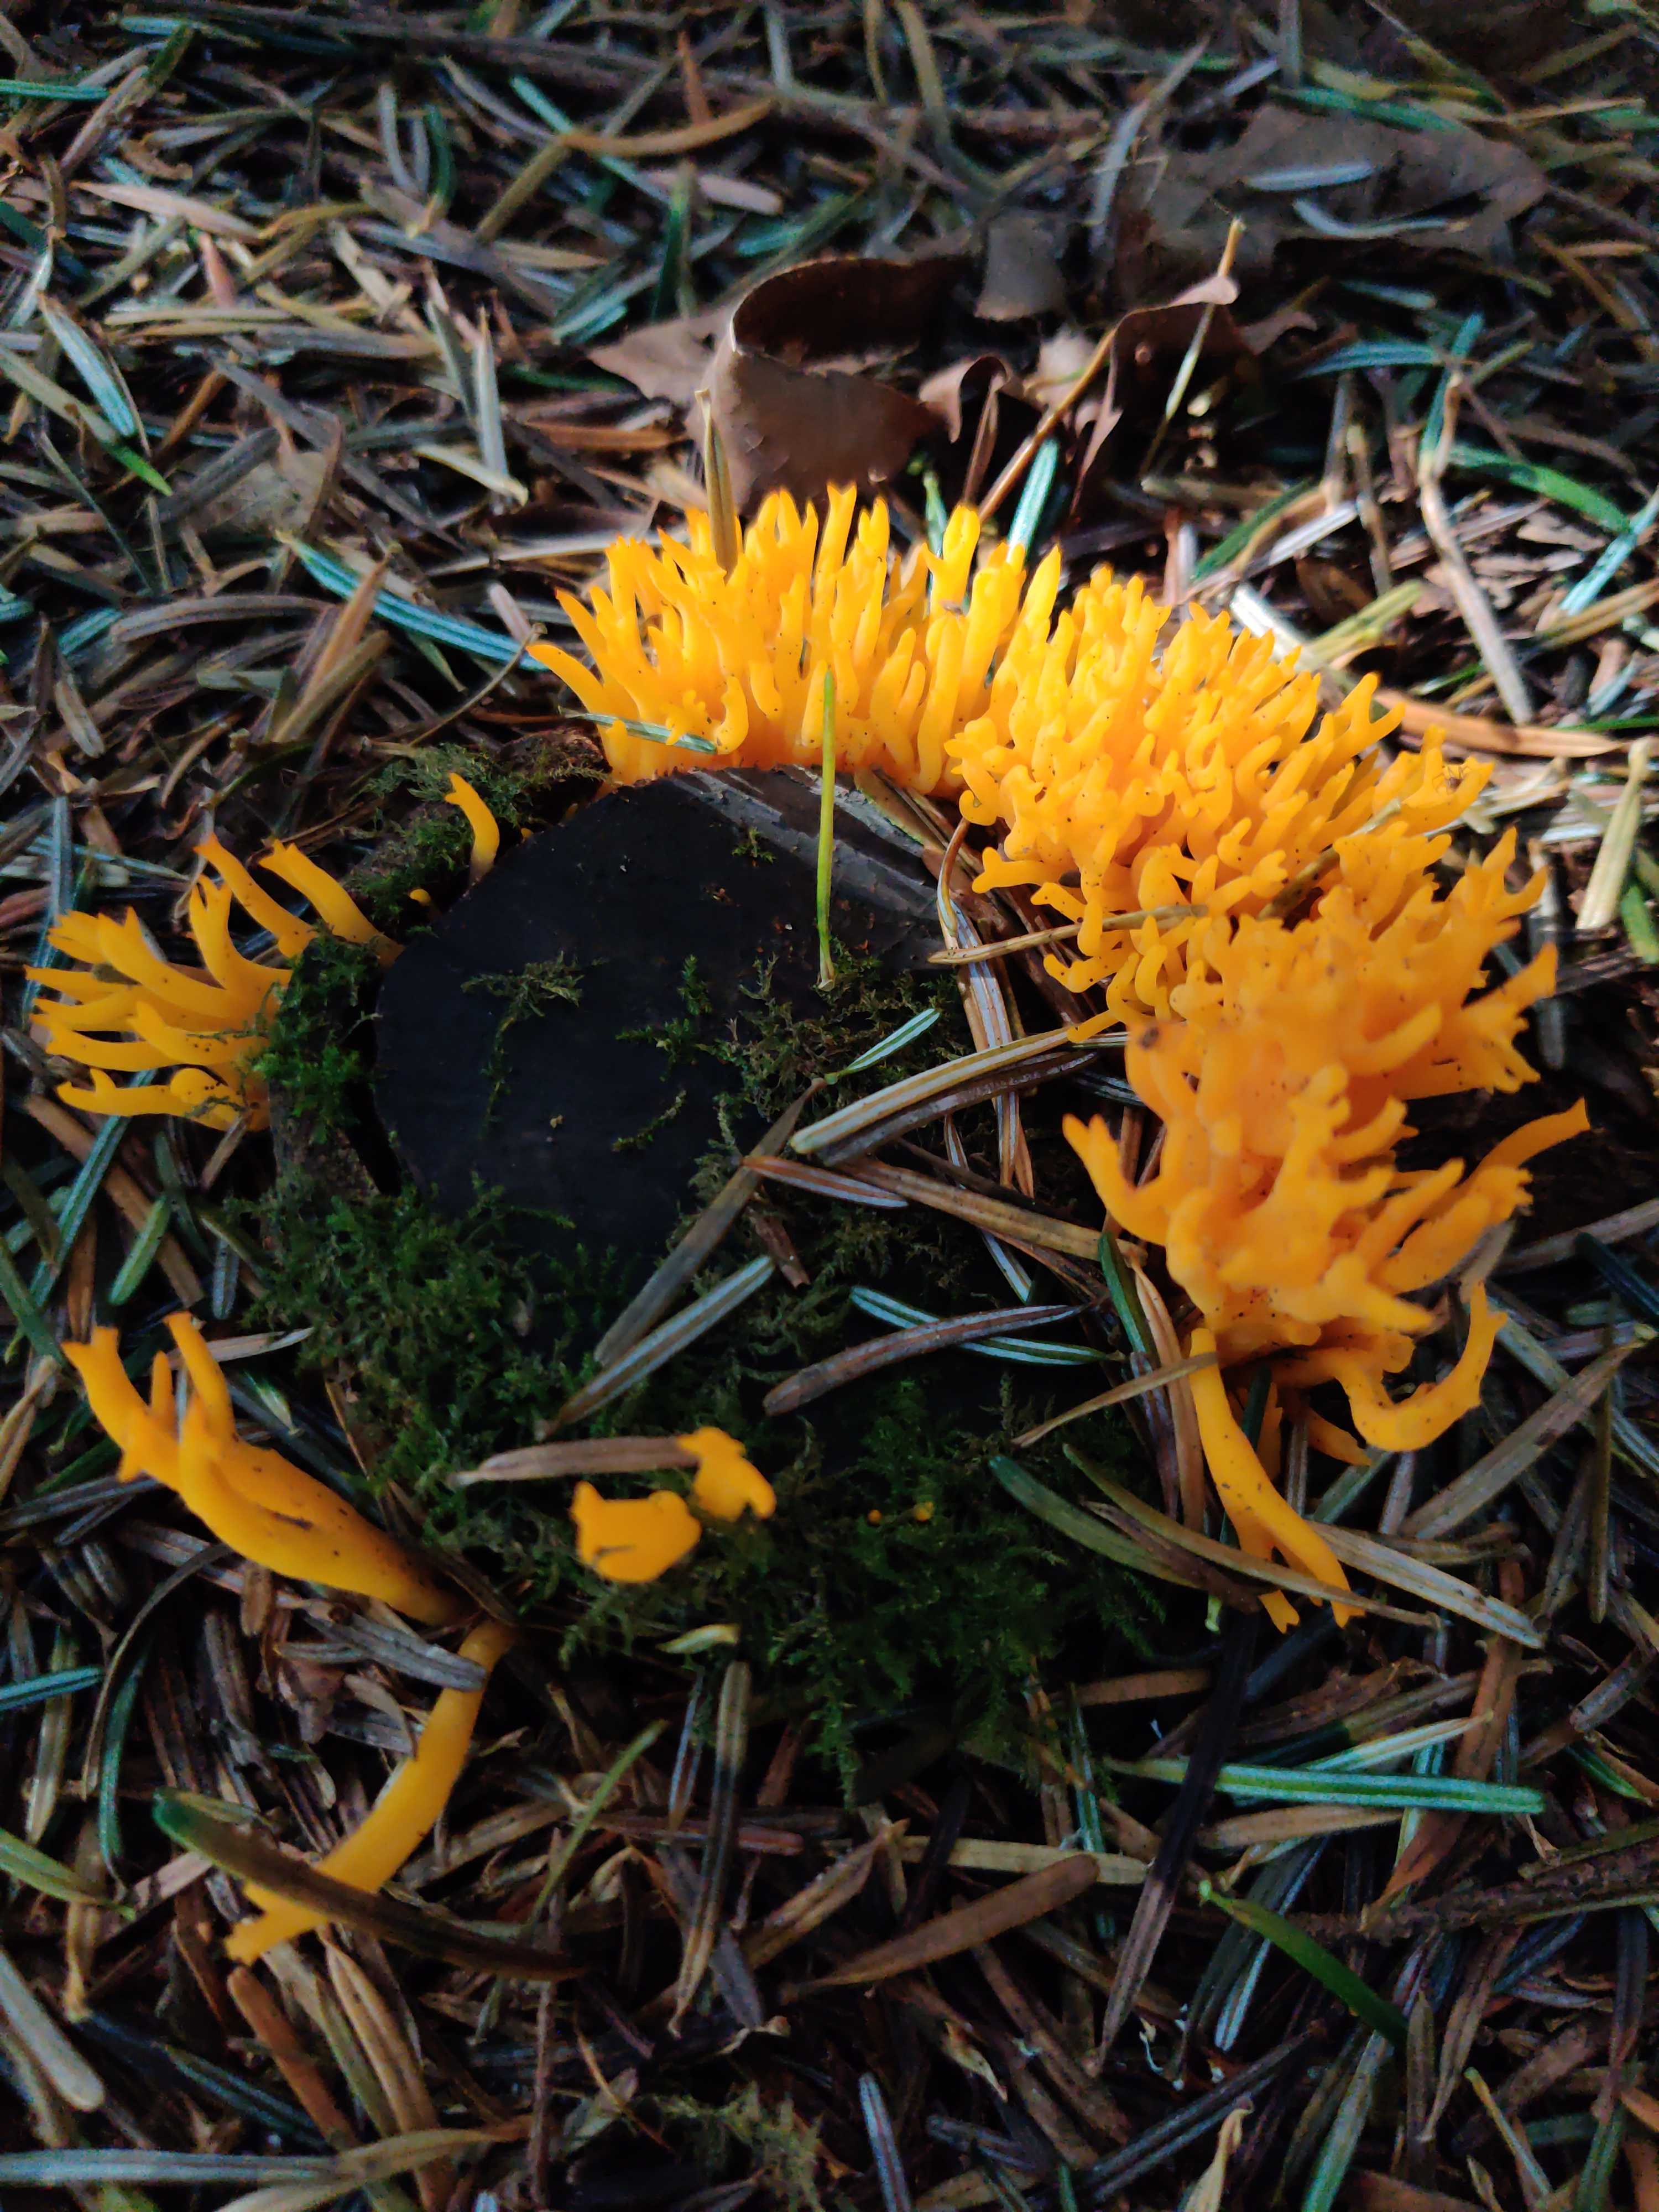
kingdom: Fungi
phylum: Basidiomycota
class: Dacrymycetes
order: Dacrymycetales
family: Dacrymycetaceae
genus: Calocera
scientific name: Calocera viscosa
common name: almindelig guldgaffel
